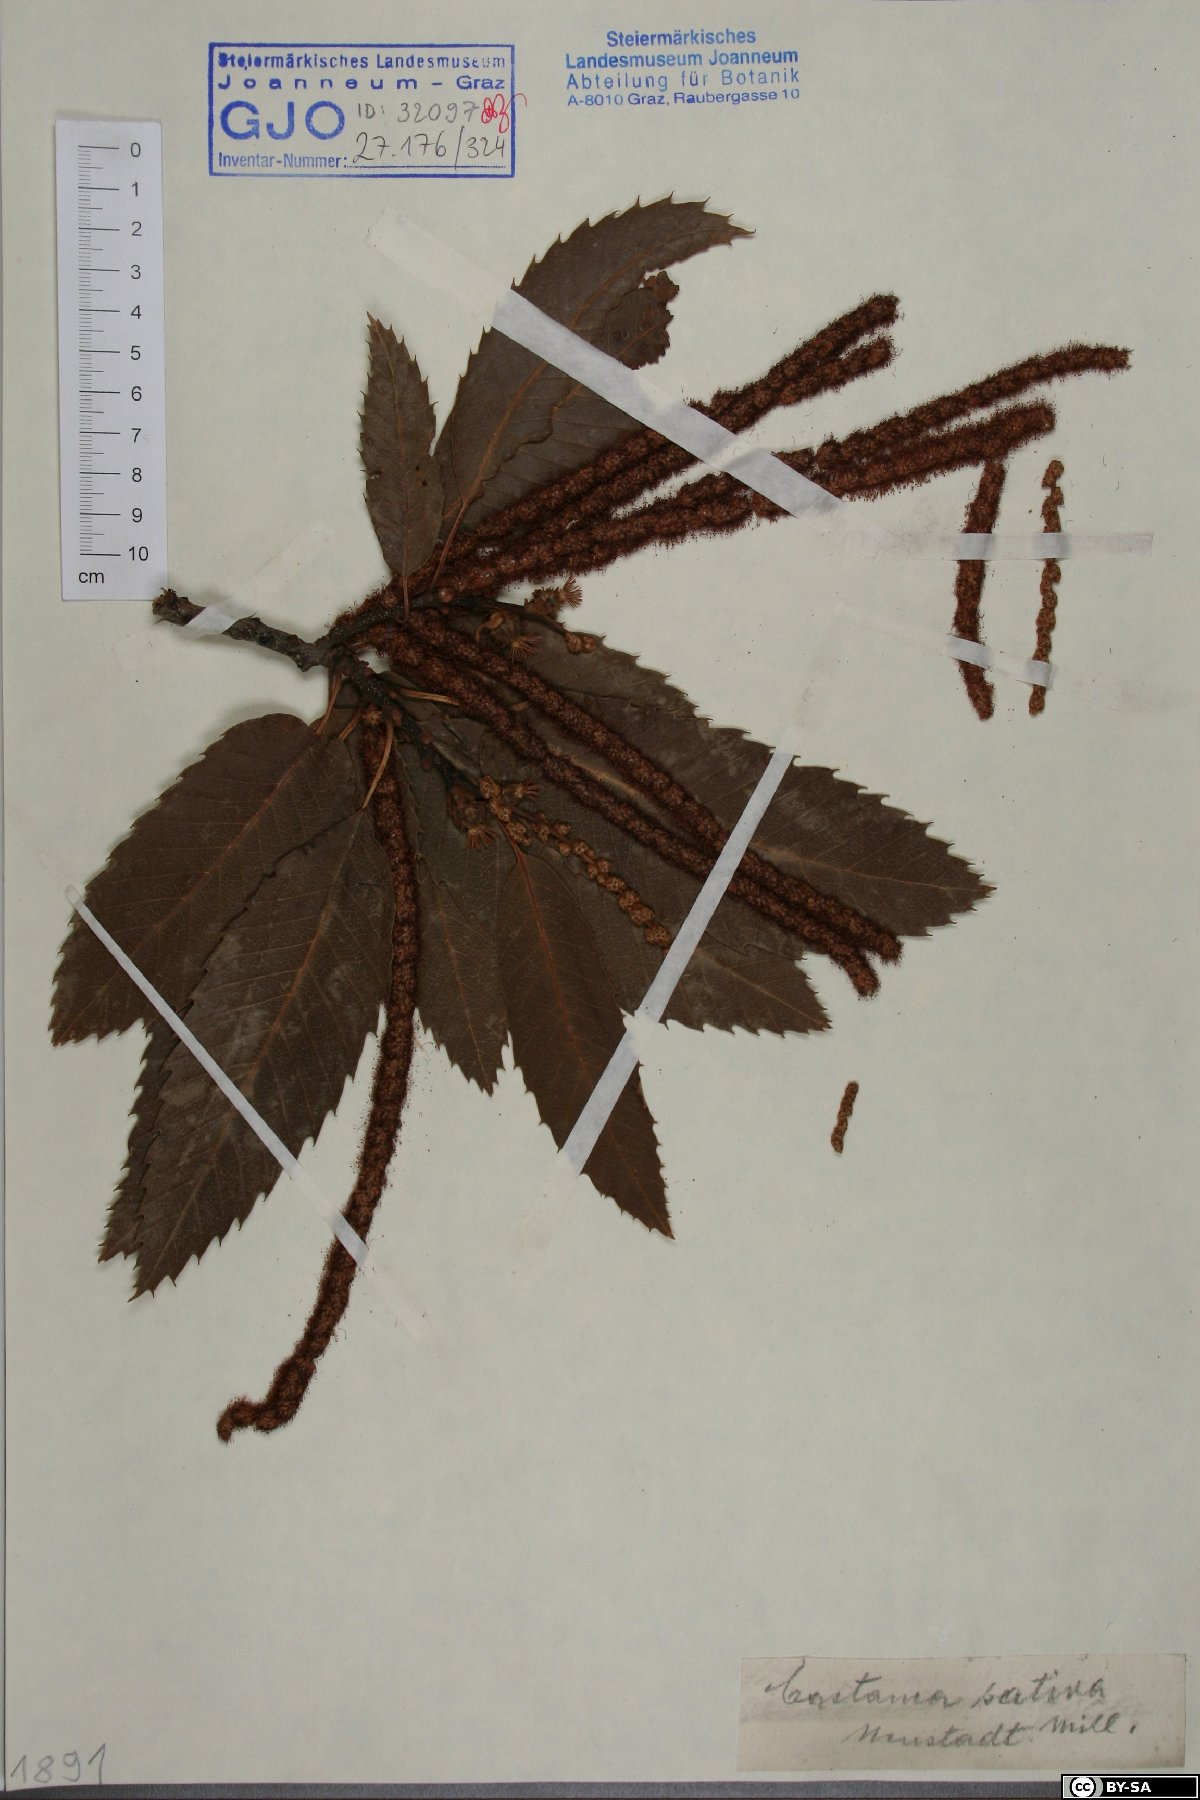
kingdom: Plantae
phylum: Tracheophyta
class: Magnoliopsida
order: Fagales
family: Fagaceae
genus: Castanea
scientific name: Castanea sativa
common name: Sweet chestnut
